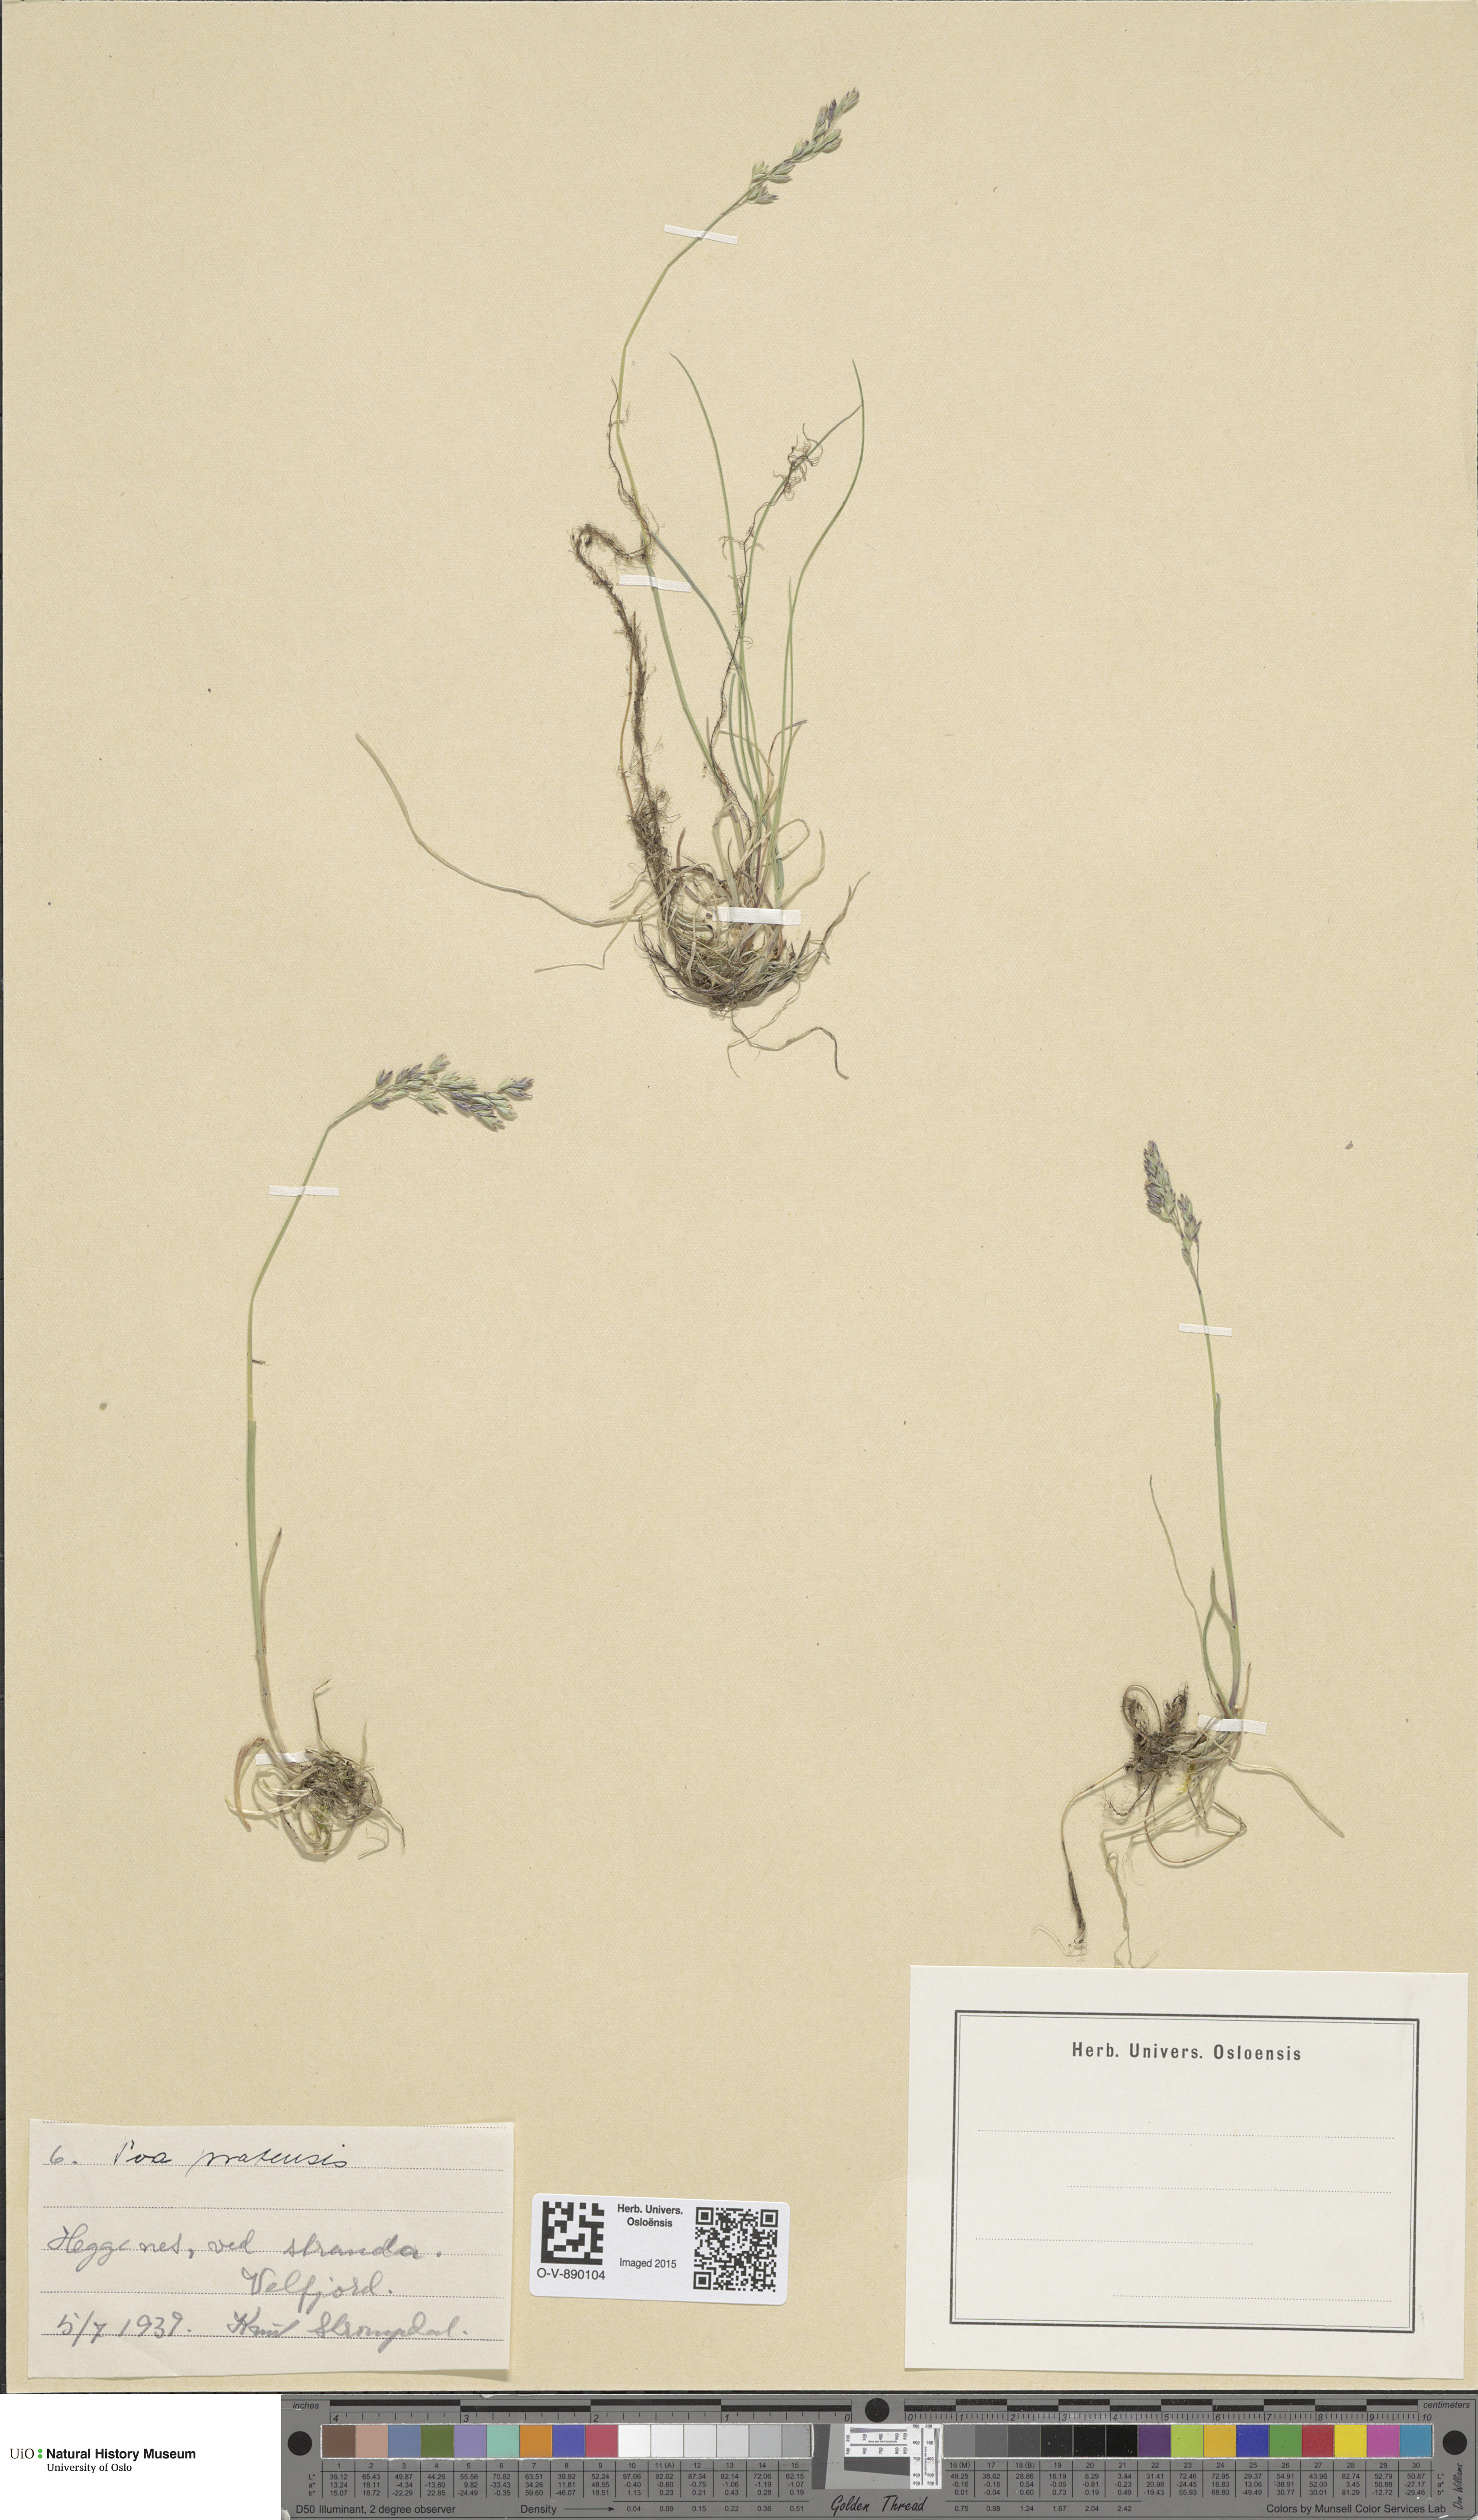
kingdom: Plantae
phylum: Tracheophyta
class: Liliopsida
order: Poales
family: Poaceae
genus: Poa
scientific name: Poa pratensis
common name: Kentucky bluegrass
